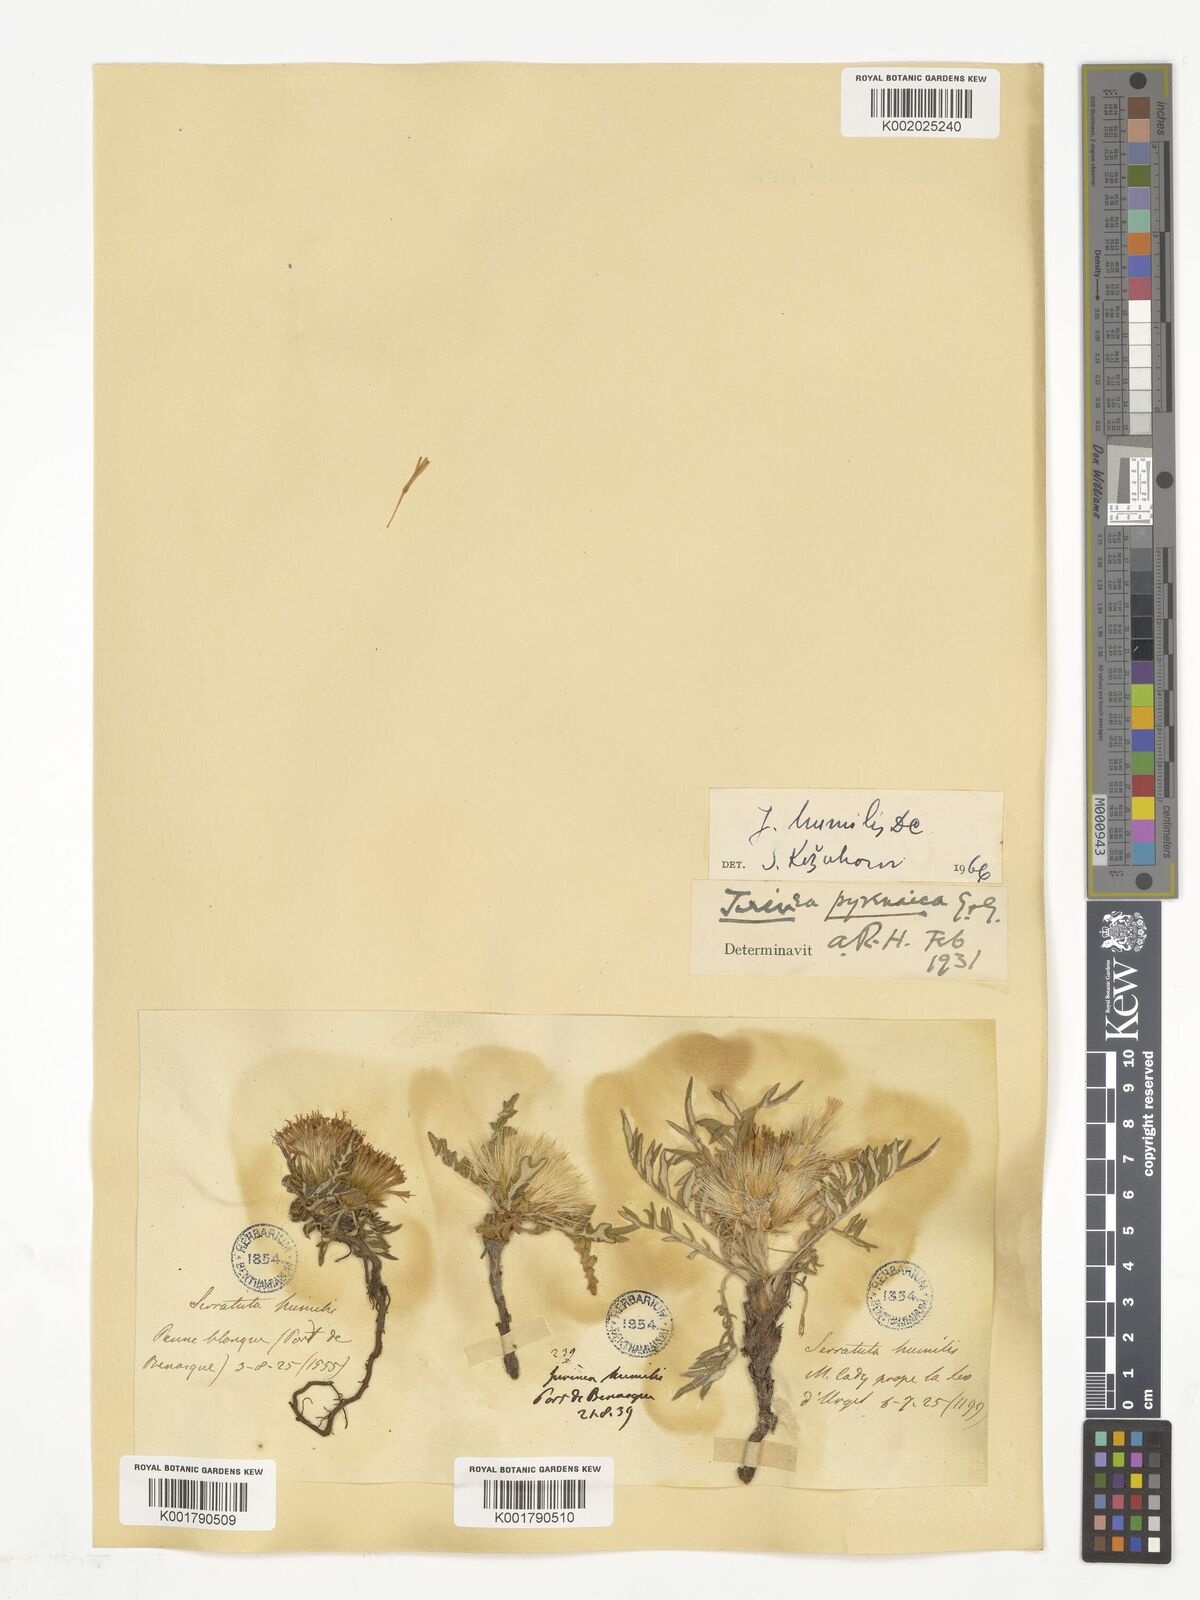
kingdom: Plantae
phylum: Tracheophyta
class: Magnoliopsida
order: Asterales
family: Asteraceae
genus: Jurinea
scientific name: Jurinea humilis
